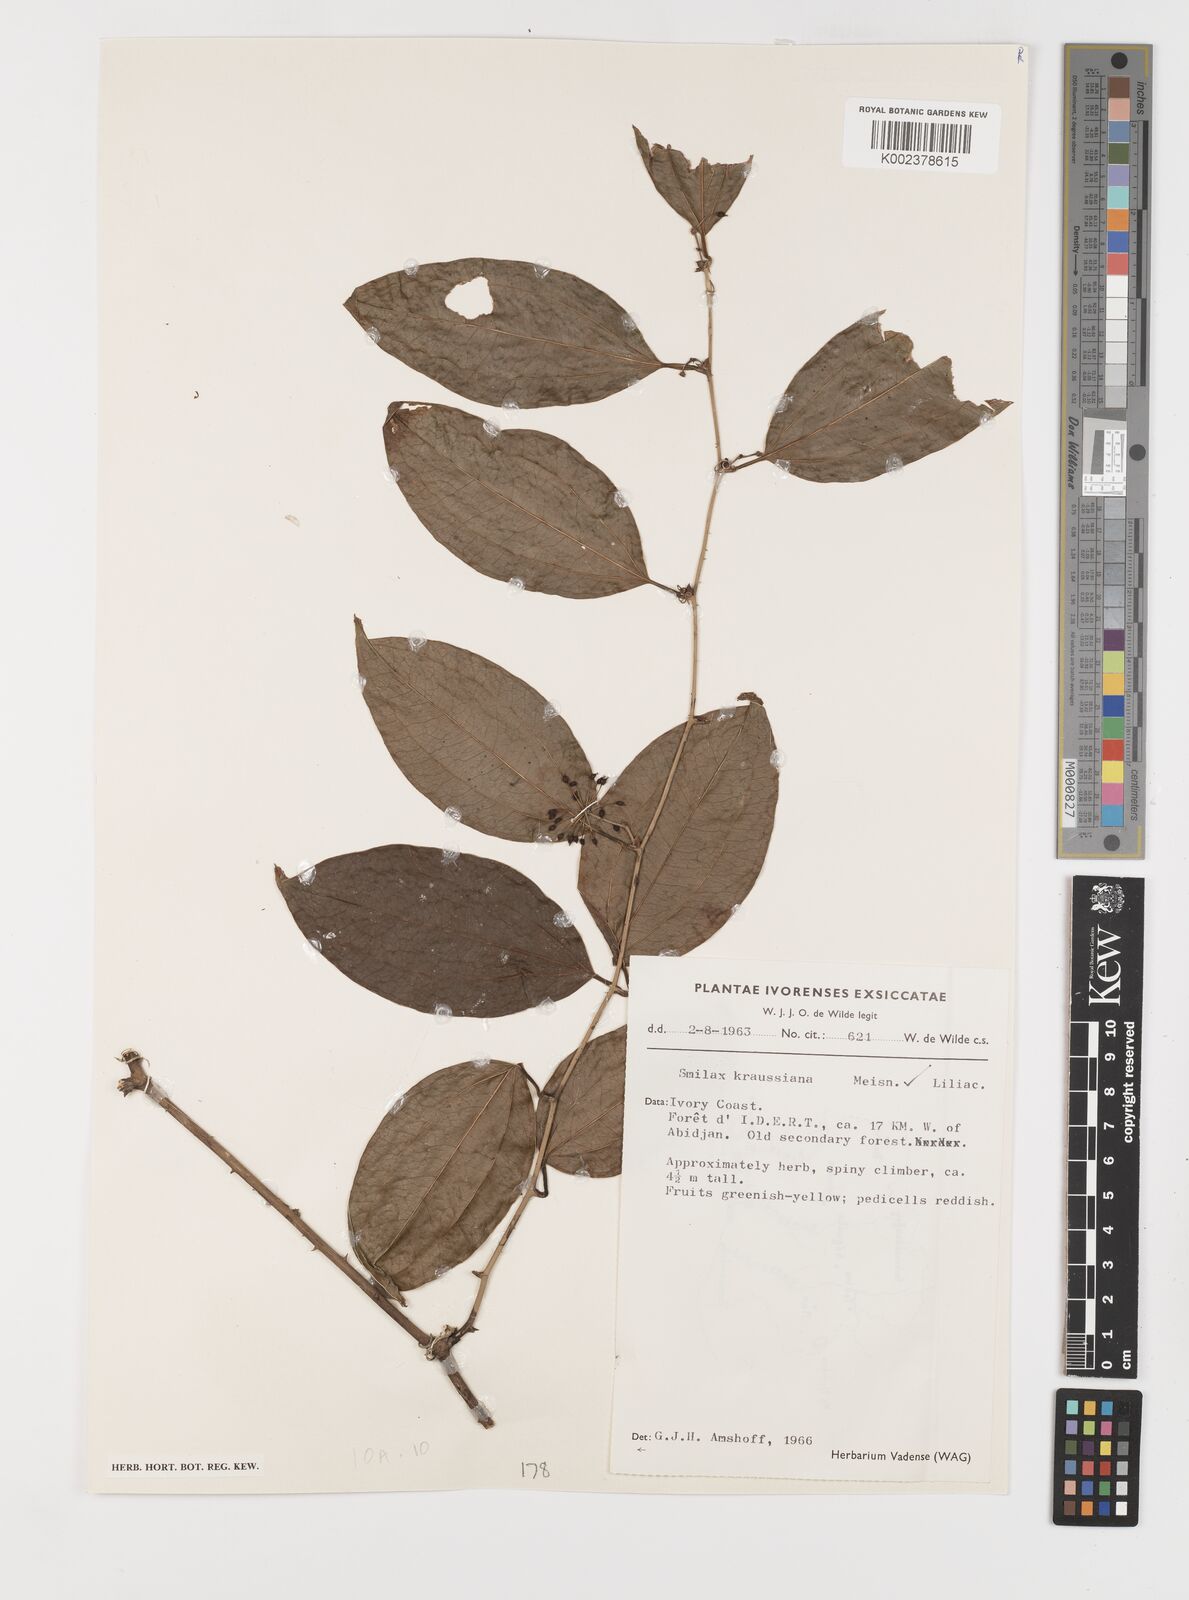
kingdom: Plantae
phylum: Tracheophyta
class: Liliopsida
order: Liliales
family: Smilacaceae
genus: Smilax
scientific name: Smilax anceps
